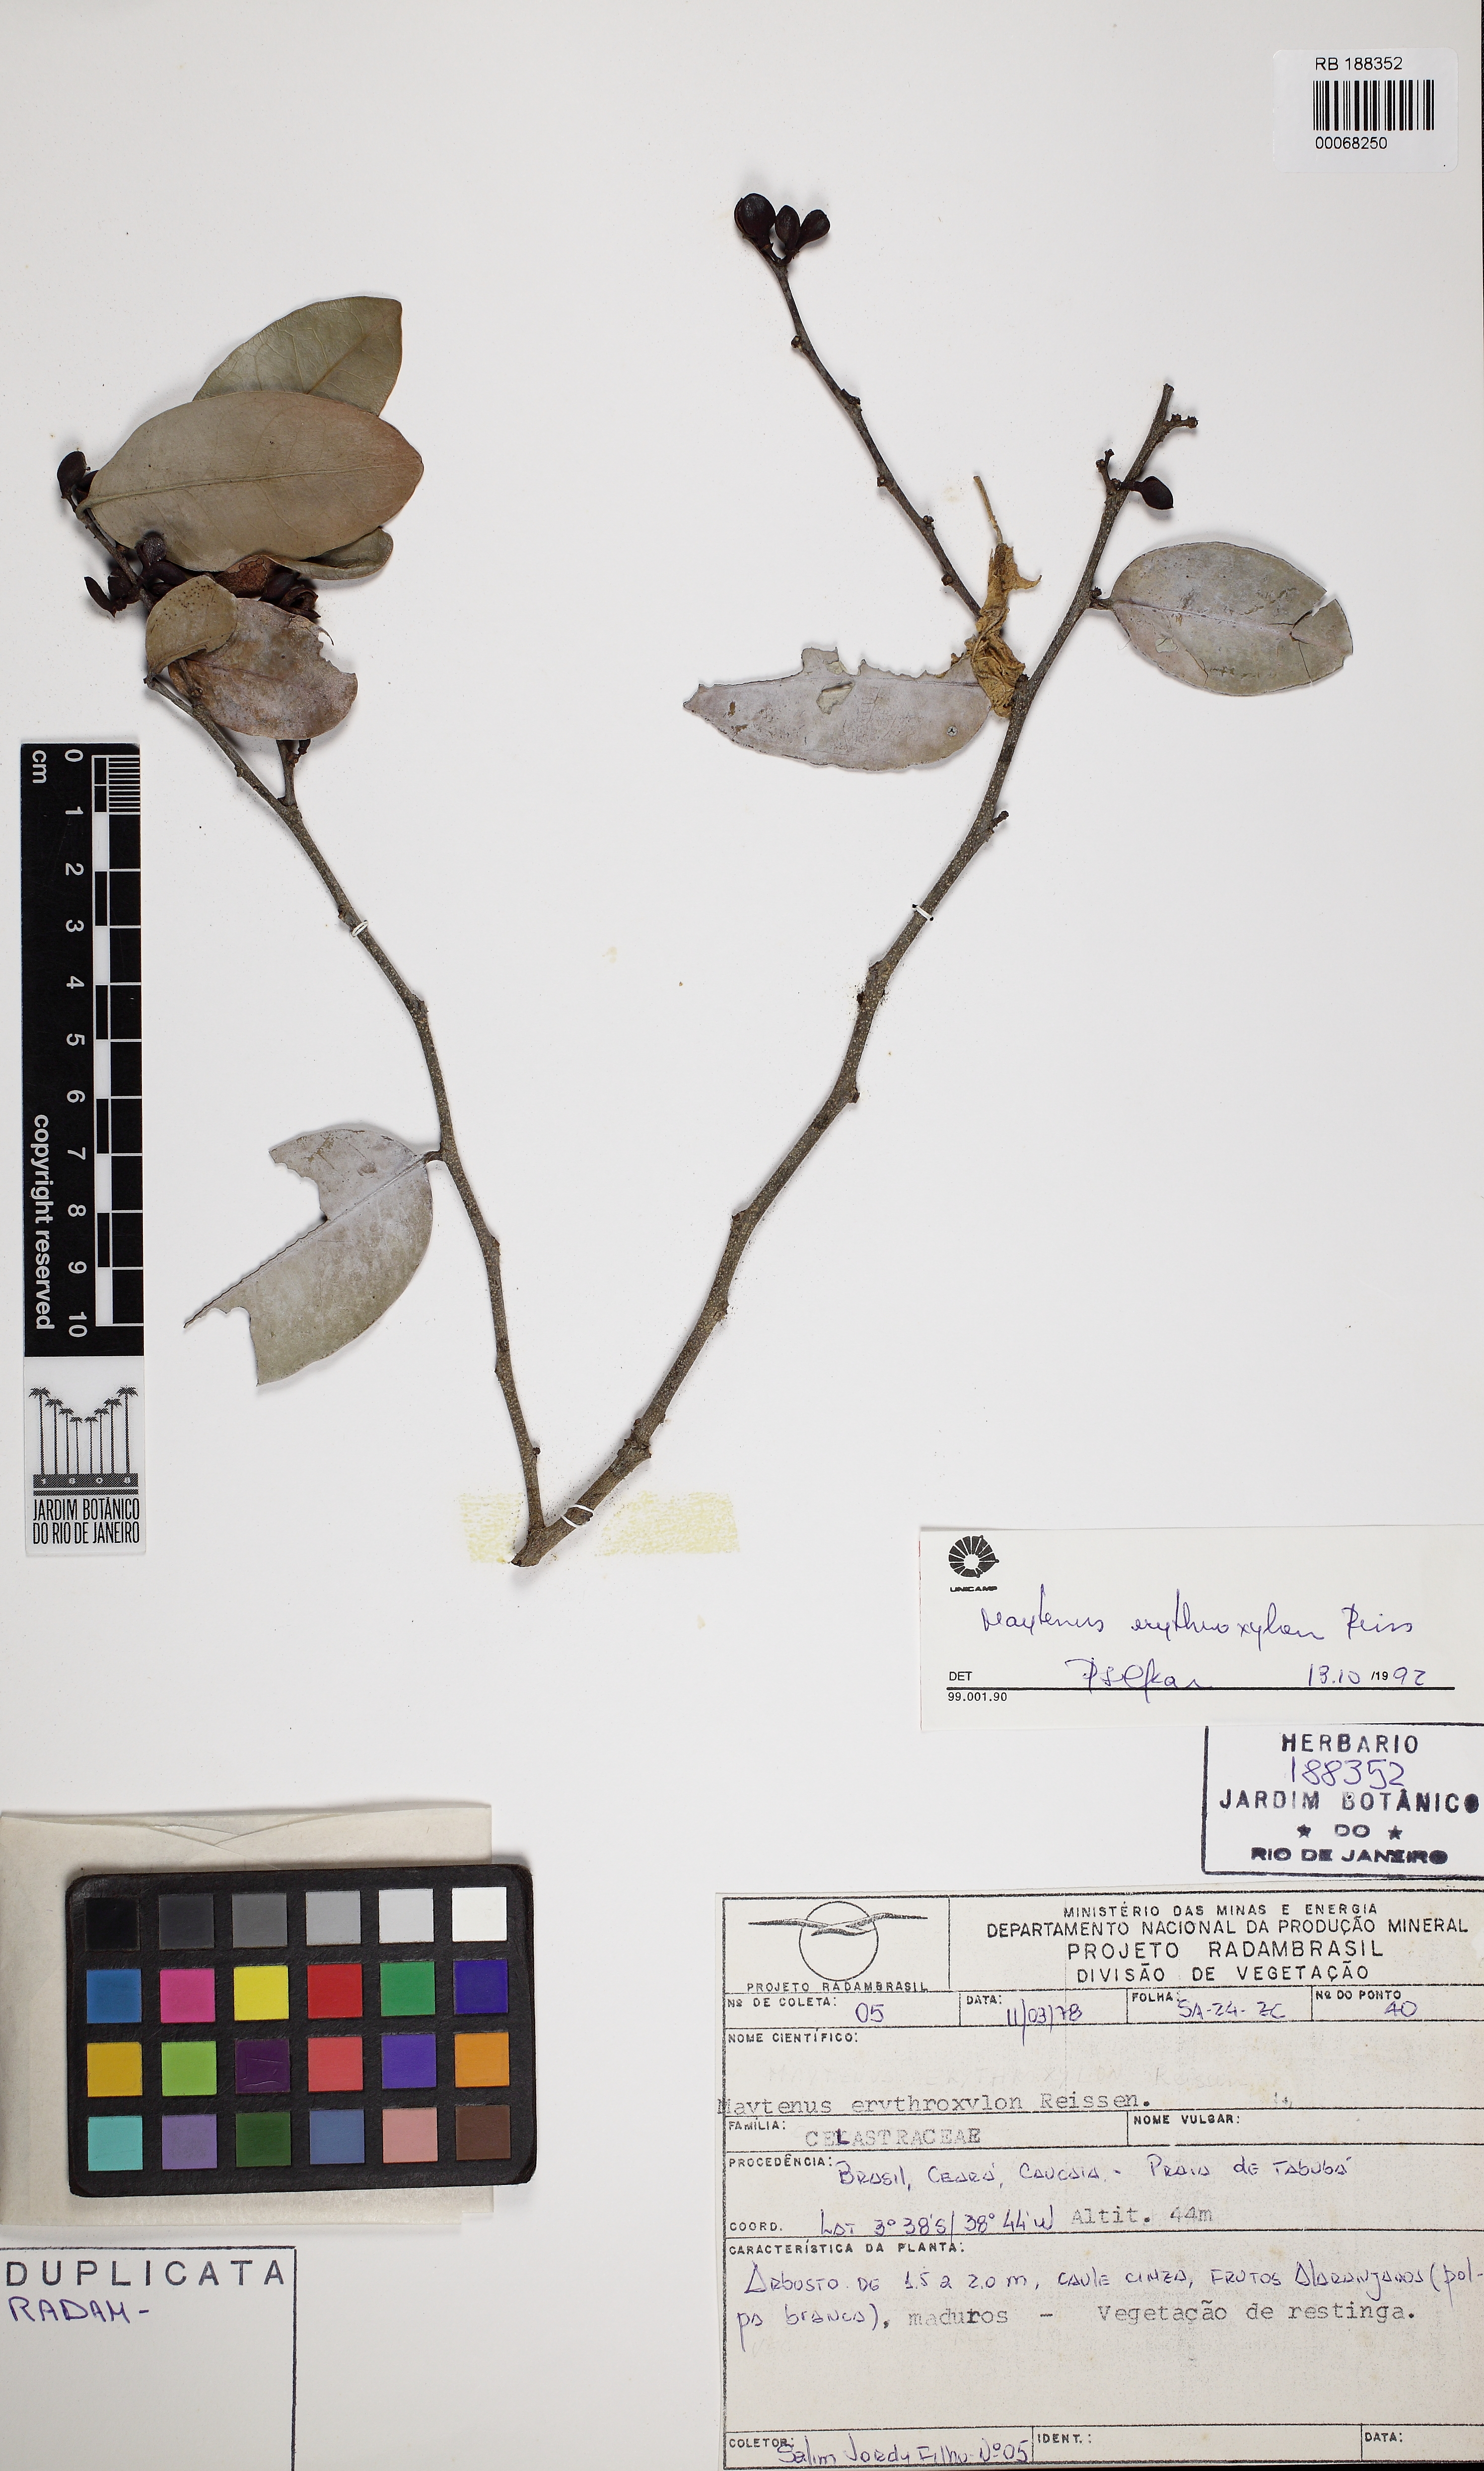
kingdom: Plantae
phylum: Tracheophyta
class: Magnoliopsida
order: Celastrales
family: Celastraceae
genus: Monteverdia
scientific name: Monteverdia erythroxylon
